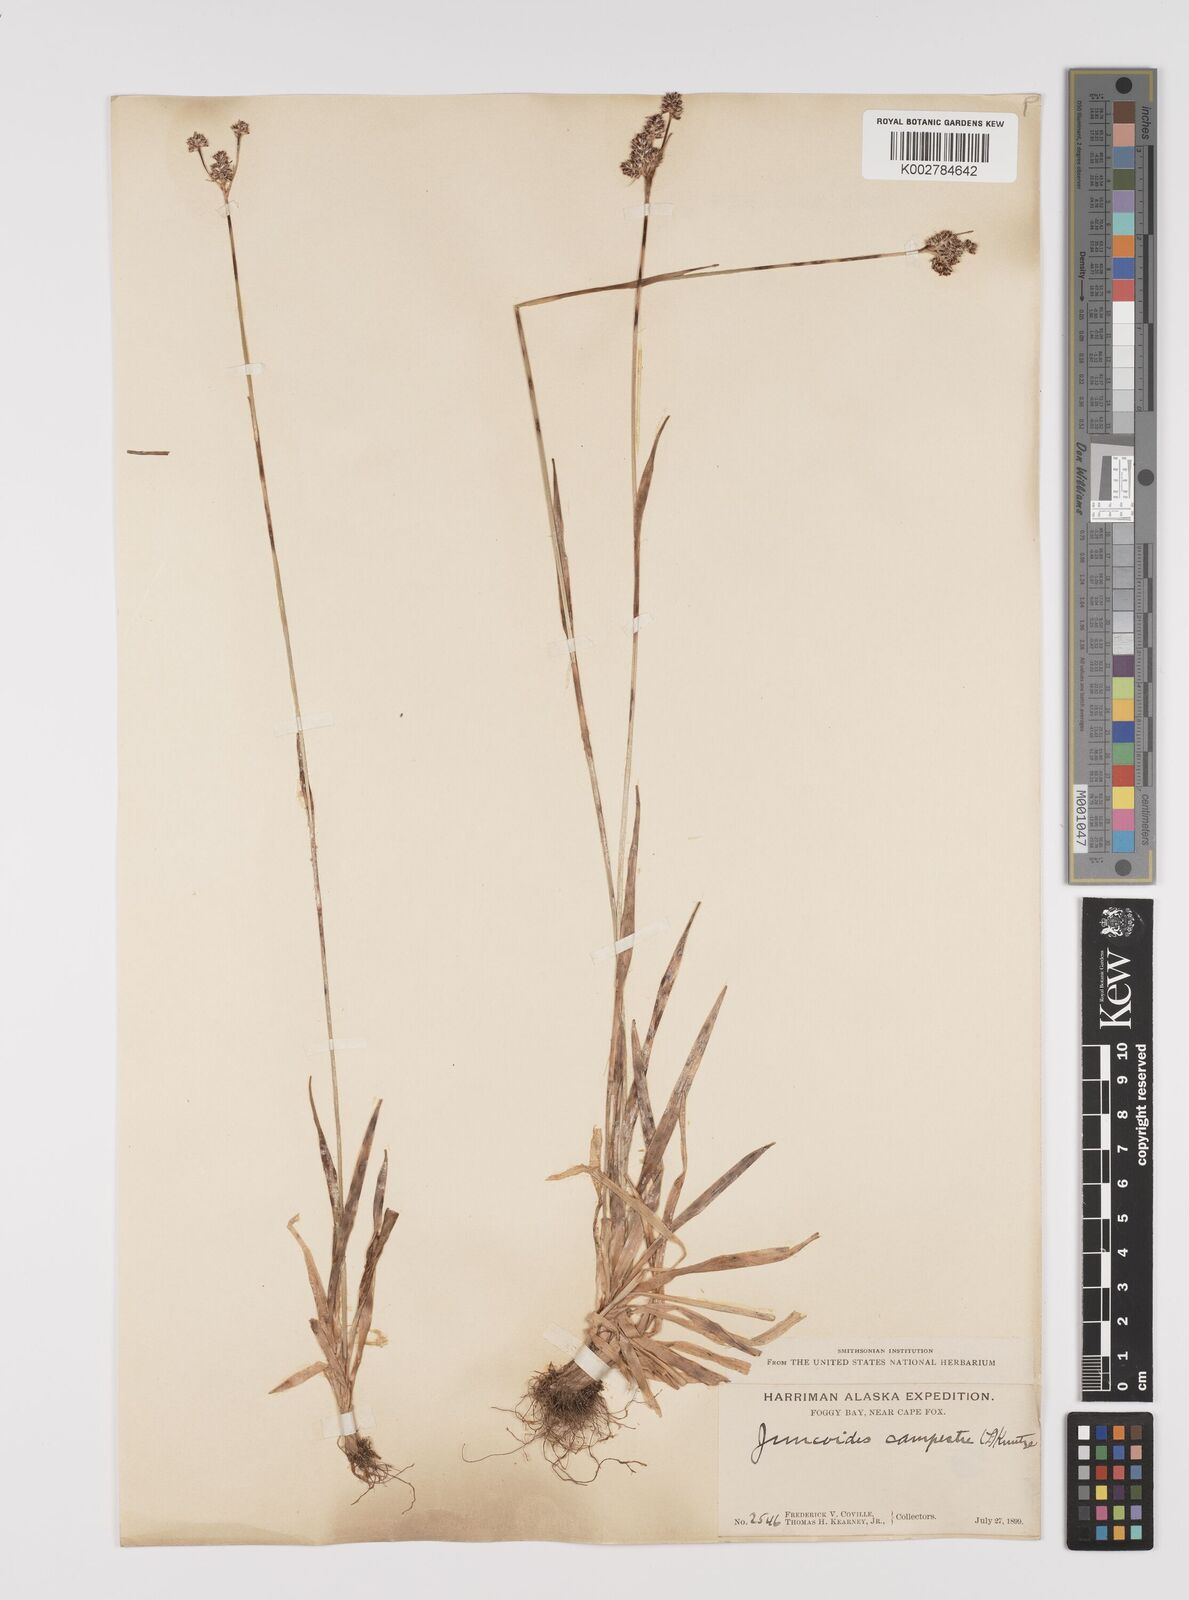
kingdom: Plantae
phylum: Tracheophyta
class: Liliopsida
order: Poales
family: Juncaceae
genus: Luzula
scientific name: Luzula campestris
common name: Field wood-rush
